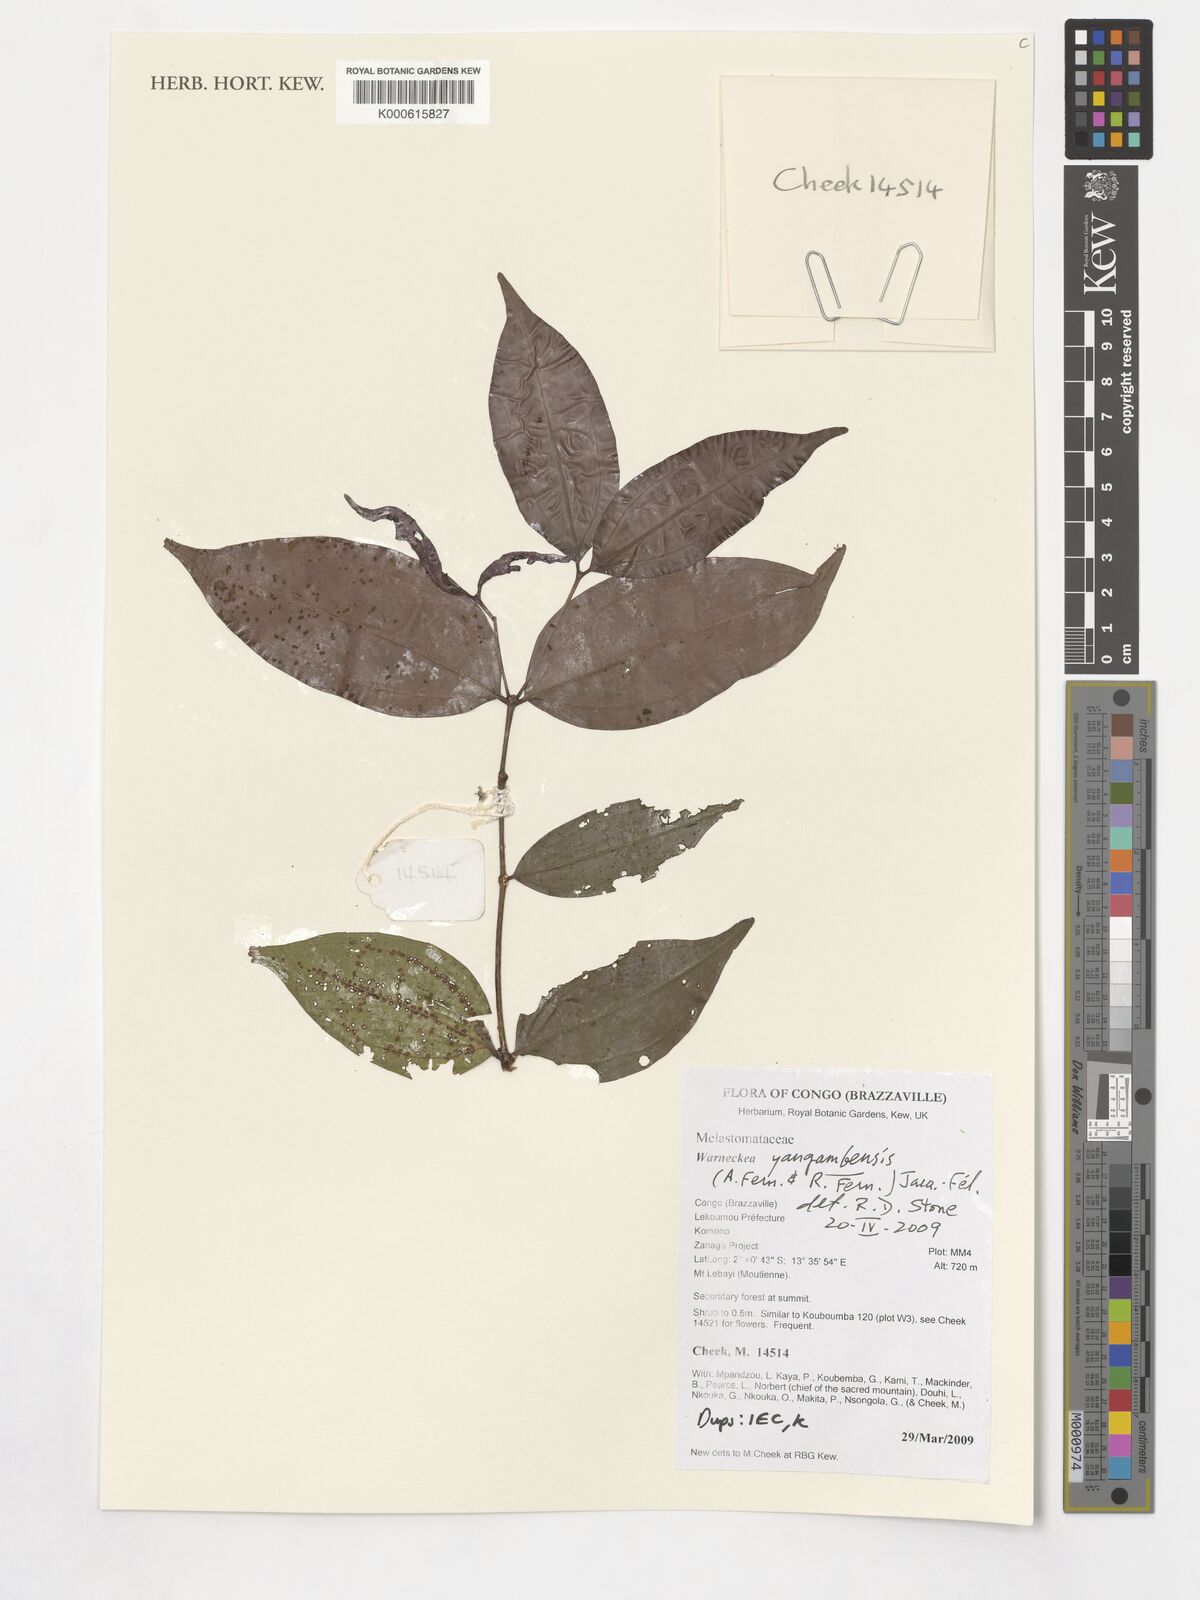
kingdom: Plantae
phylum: Tracheophyta
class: Magnoliopsida
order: Myrtales
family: Melastomataceae
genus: Warneckea
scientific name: Warneckea yangambensis
